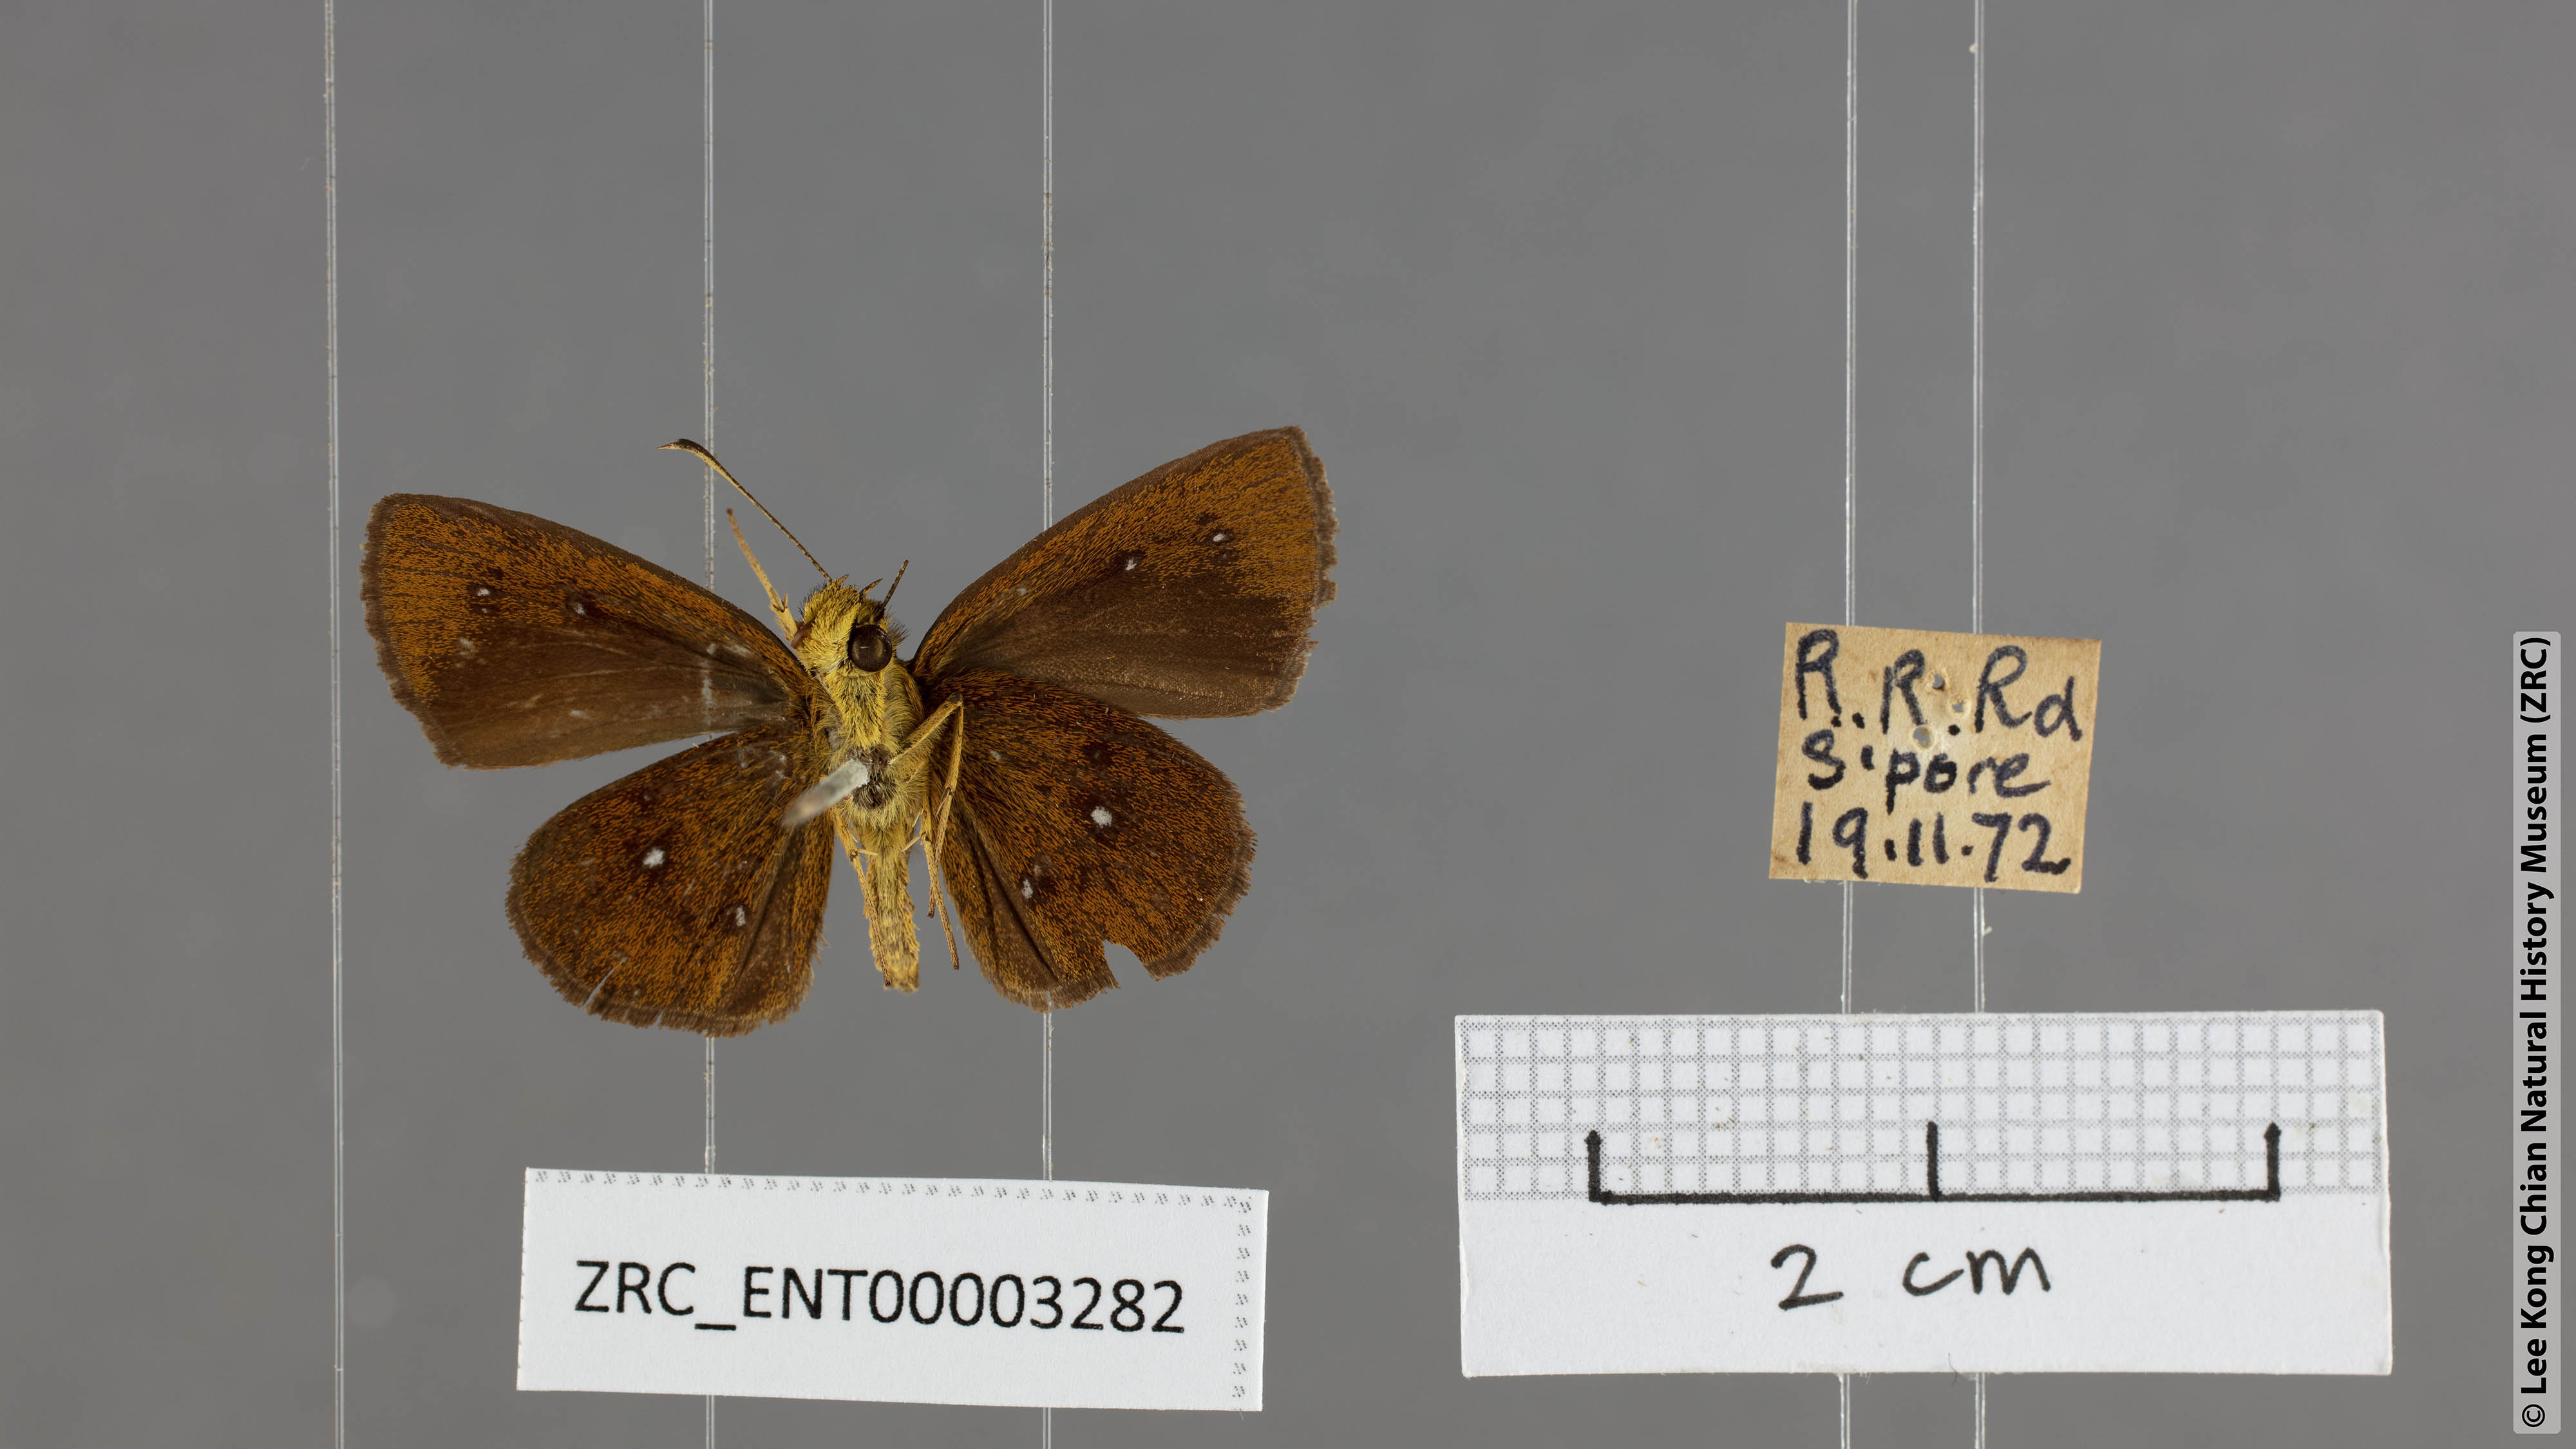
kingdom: Animalia
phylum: Arthropoda
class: Insecta
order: Lepidoptera
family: Hesperiidae
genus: Iambrix
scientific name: Iambrix salsala
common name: Chestnut bob
